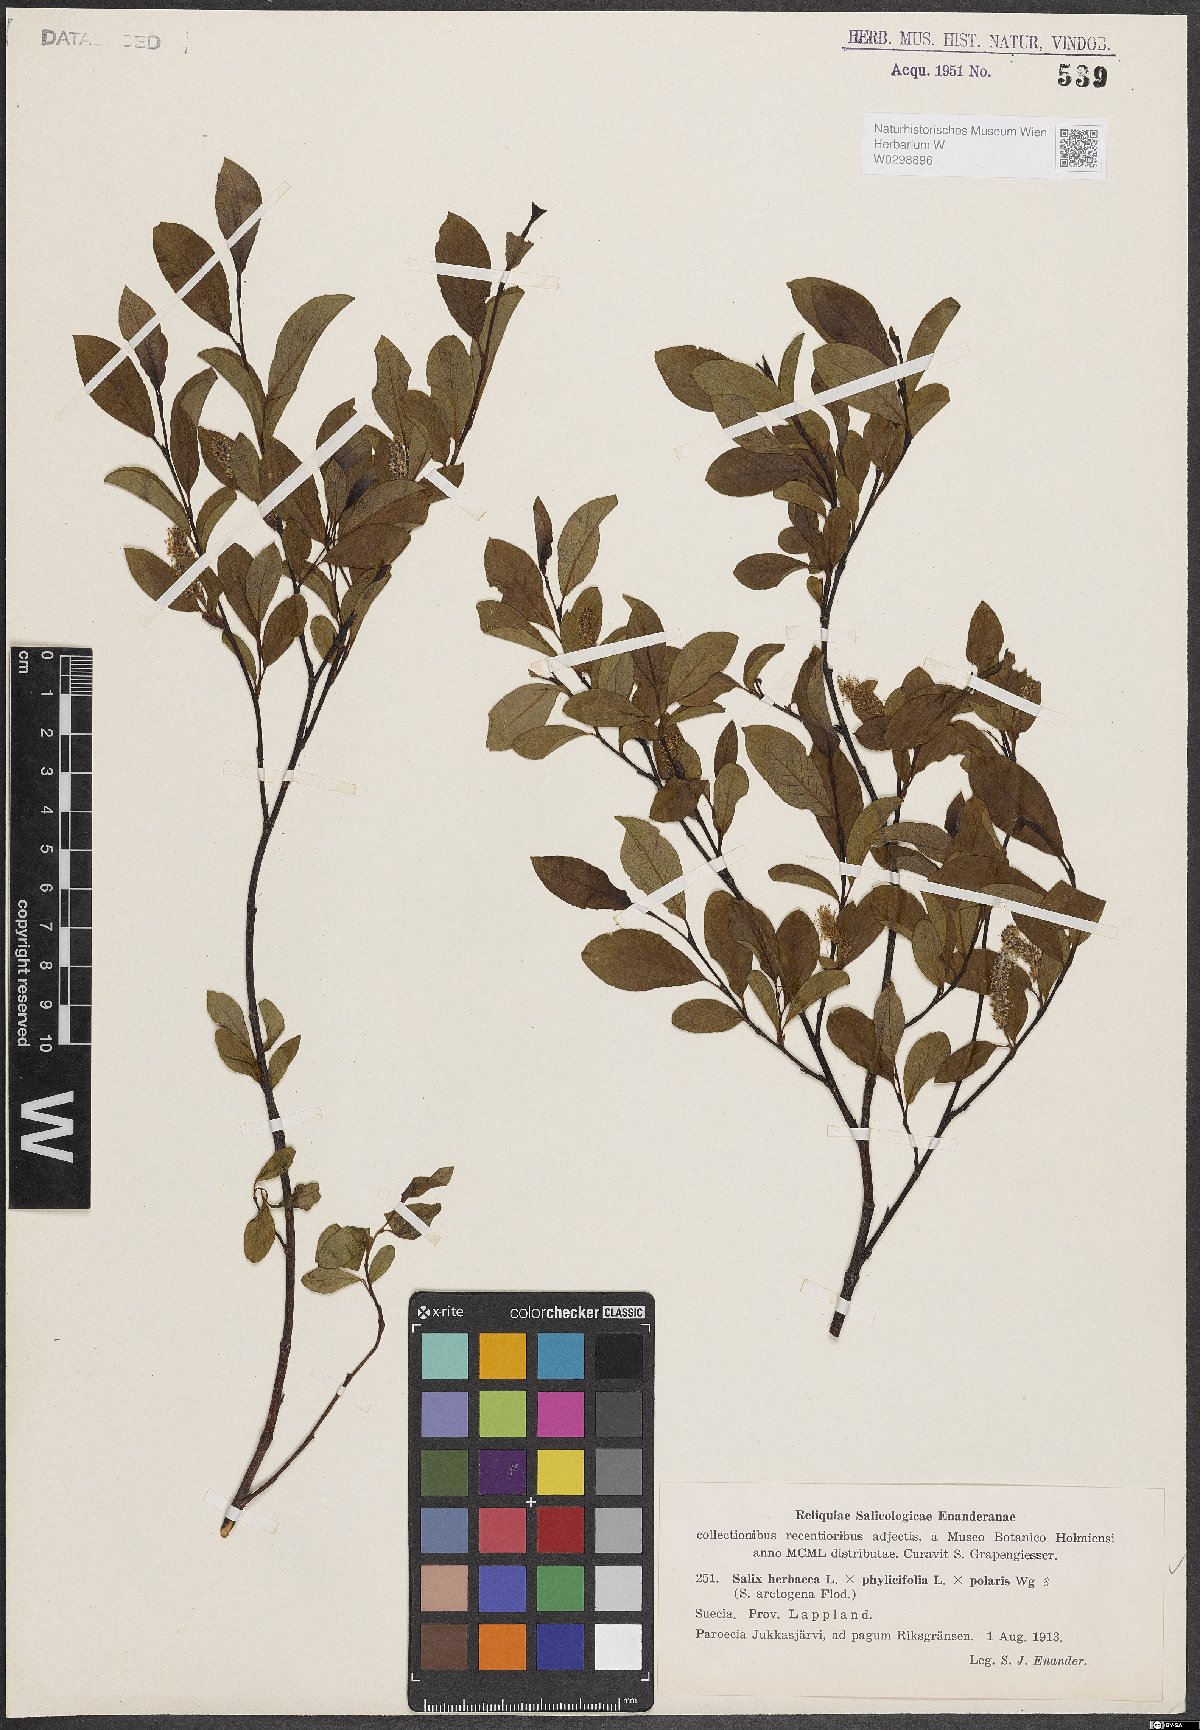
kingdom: Plantae
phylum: Tracheophyta
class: Magnoliopsida
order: Malpighiales
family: Salicaceae
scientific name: Salicaceae
